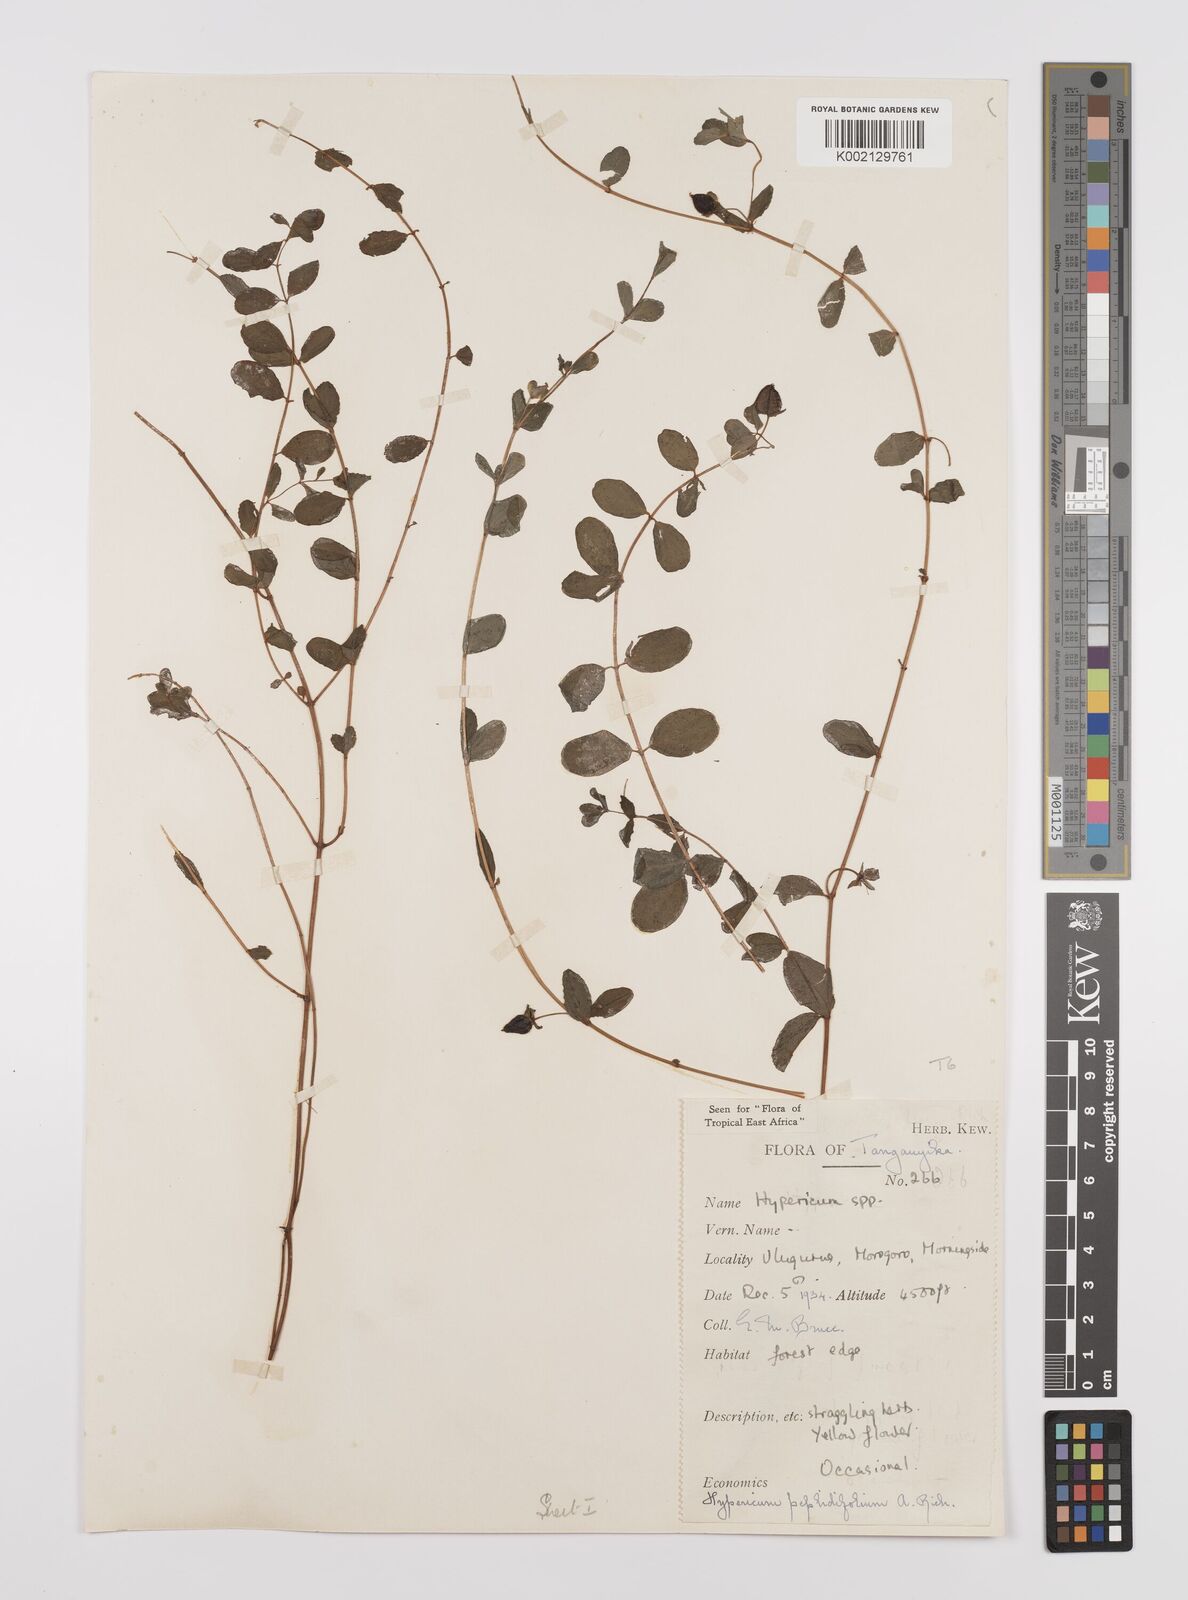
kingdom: Plantae
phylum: Tracheophyta
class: Magnoliopsida
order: Malpighiales
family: Hypericaceae
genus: Hypericum
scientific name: Hypericum peplidifolium
